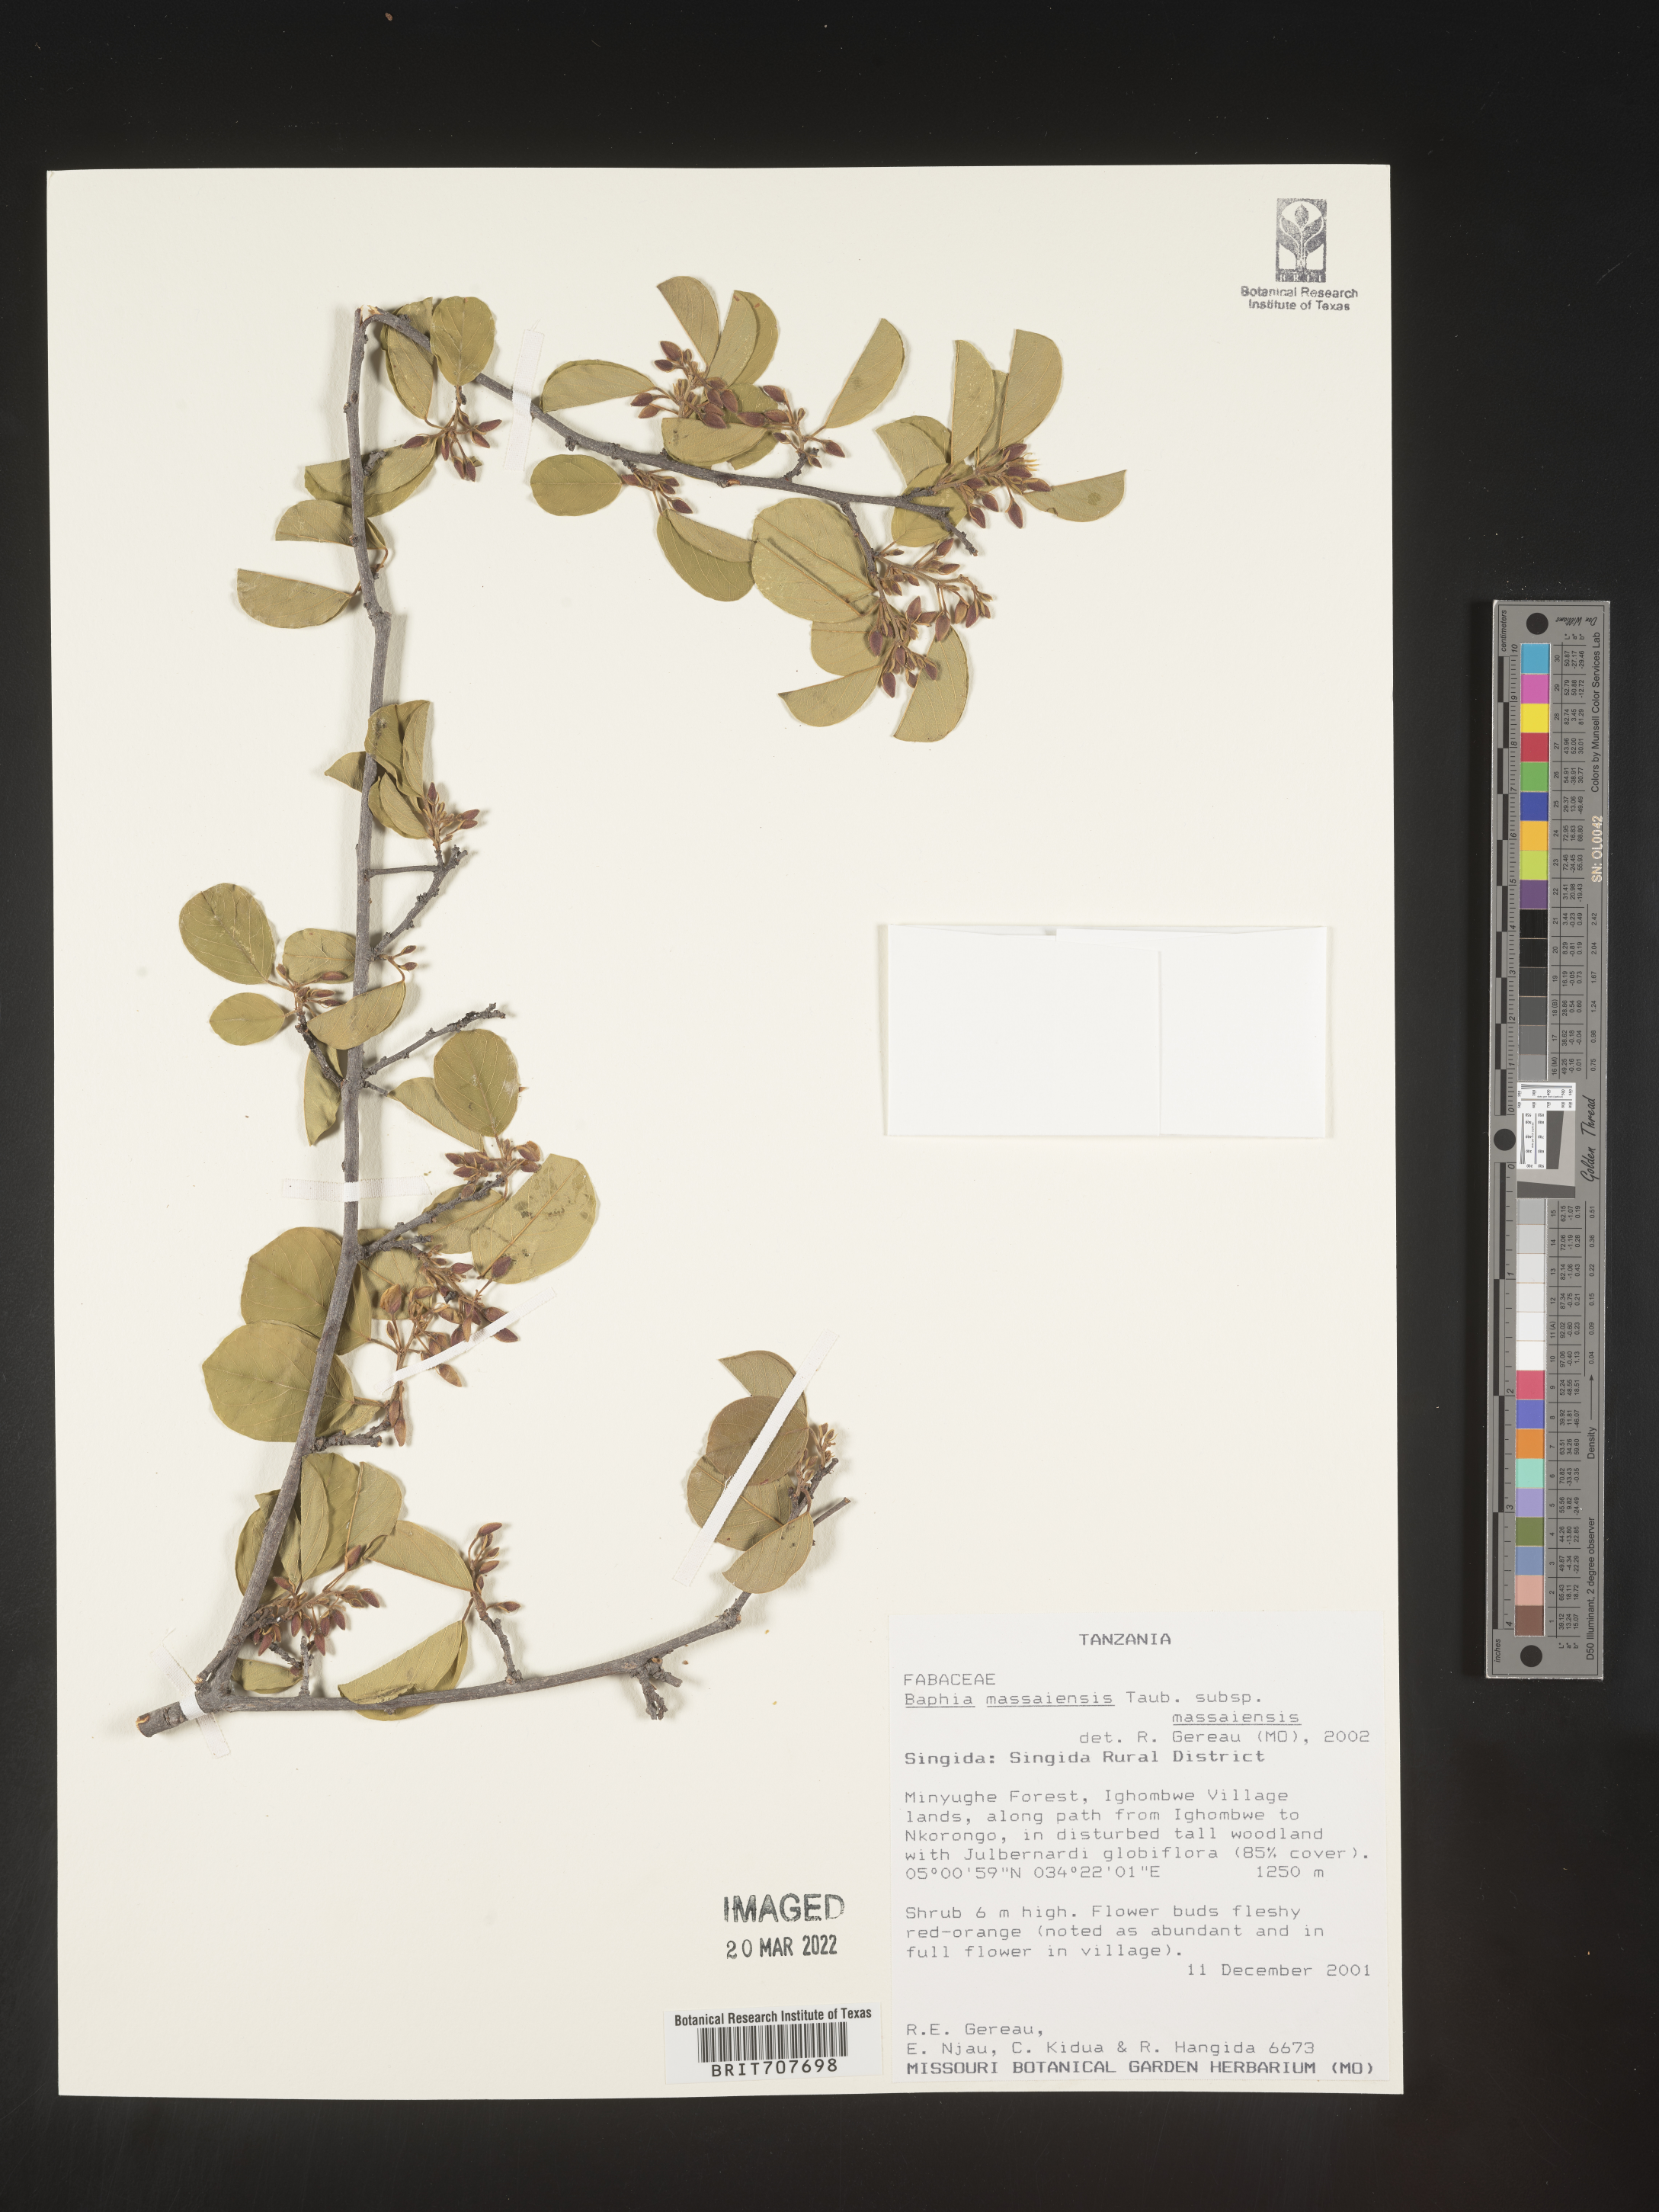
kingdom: Plantae
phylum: Tracheophyta
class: Magnoliopsida
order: Fabales
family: Fabaceae
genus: Baphia
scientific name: Baphia
